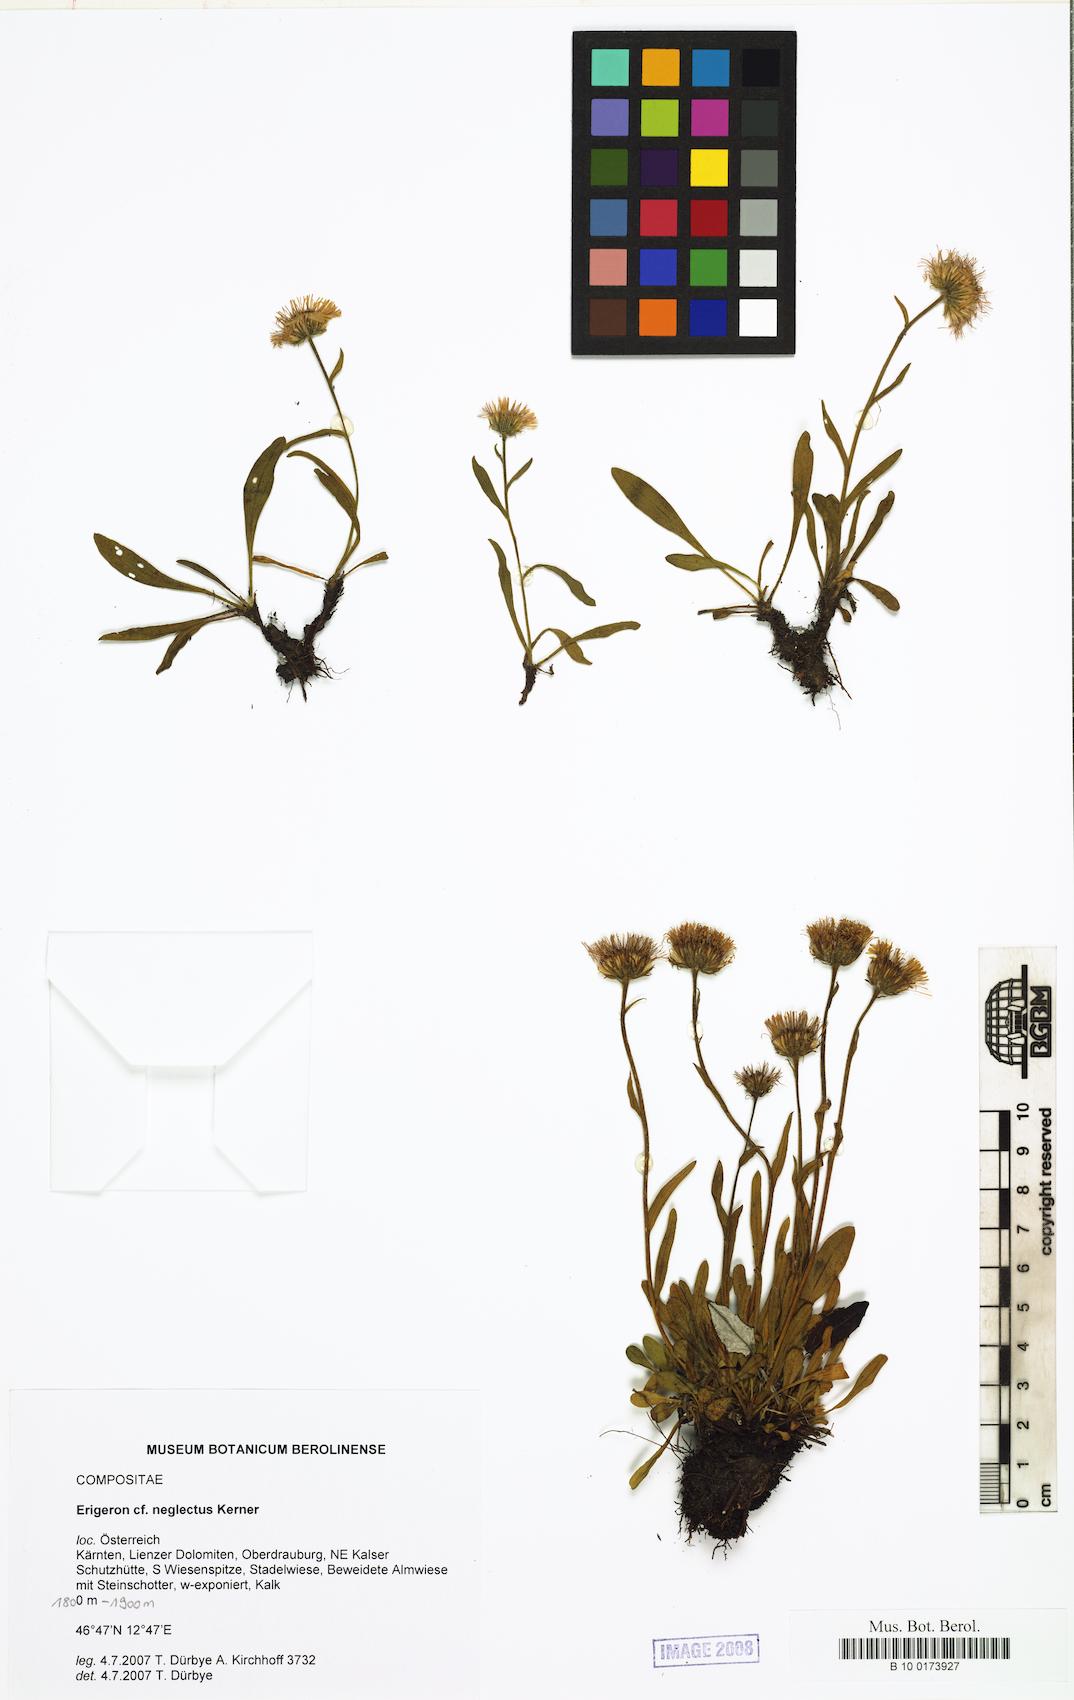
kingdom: Plantae
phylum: Tracheophyta
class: Magnoliopsida
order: Asterales
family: Asteraceae
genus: Erigeron
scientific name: Erigeron neglectus
